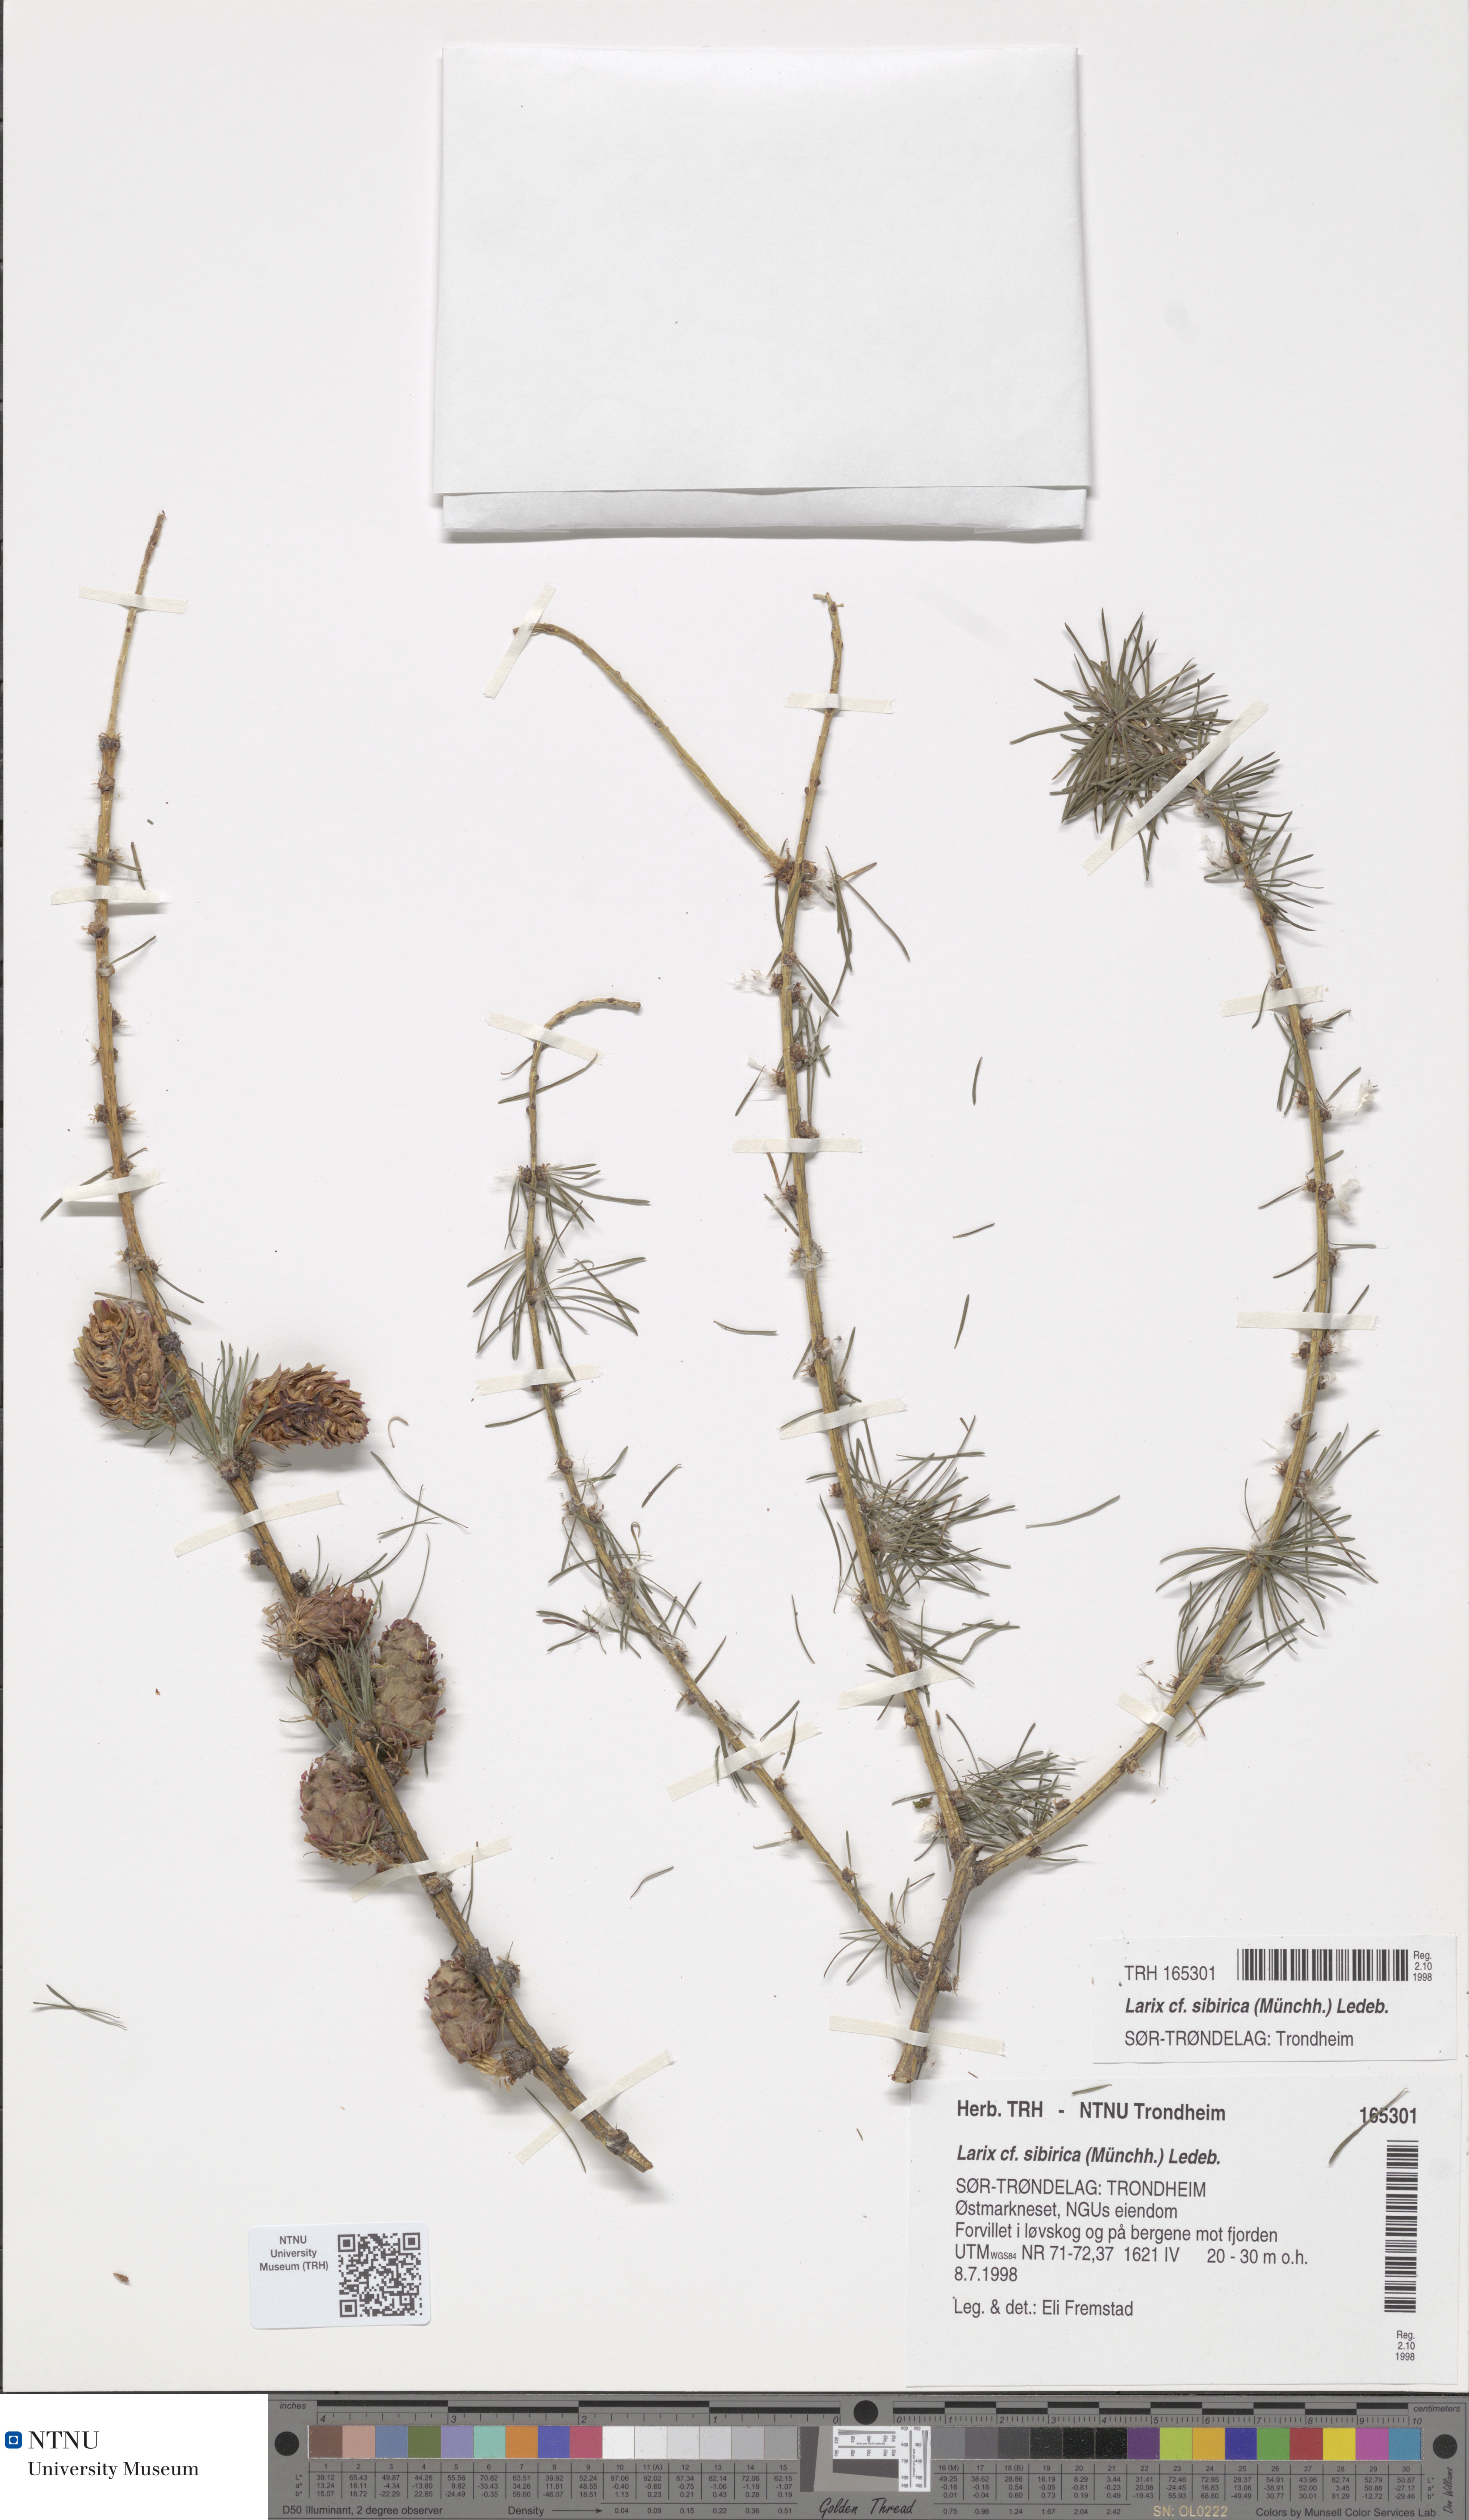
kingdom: Plantae
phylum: Tracheophyta
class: Pinopsida
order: Pinales
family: Pinaceae
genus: Larix
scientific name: Larix sibirica
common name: Siberian larch
